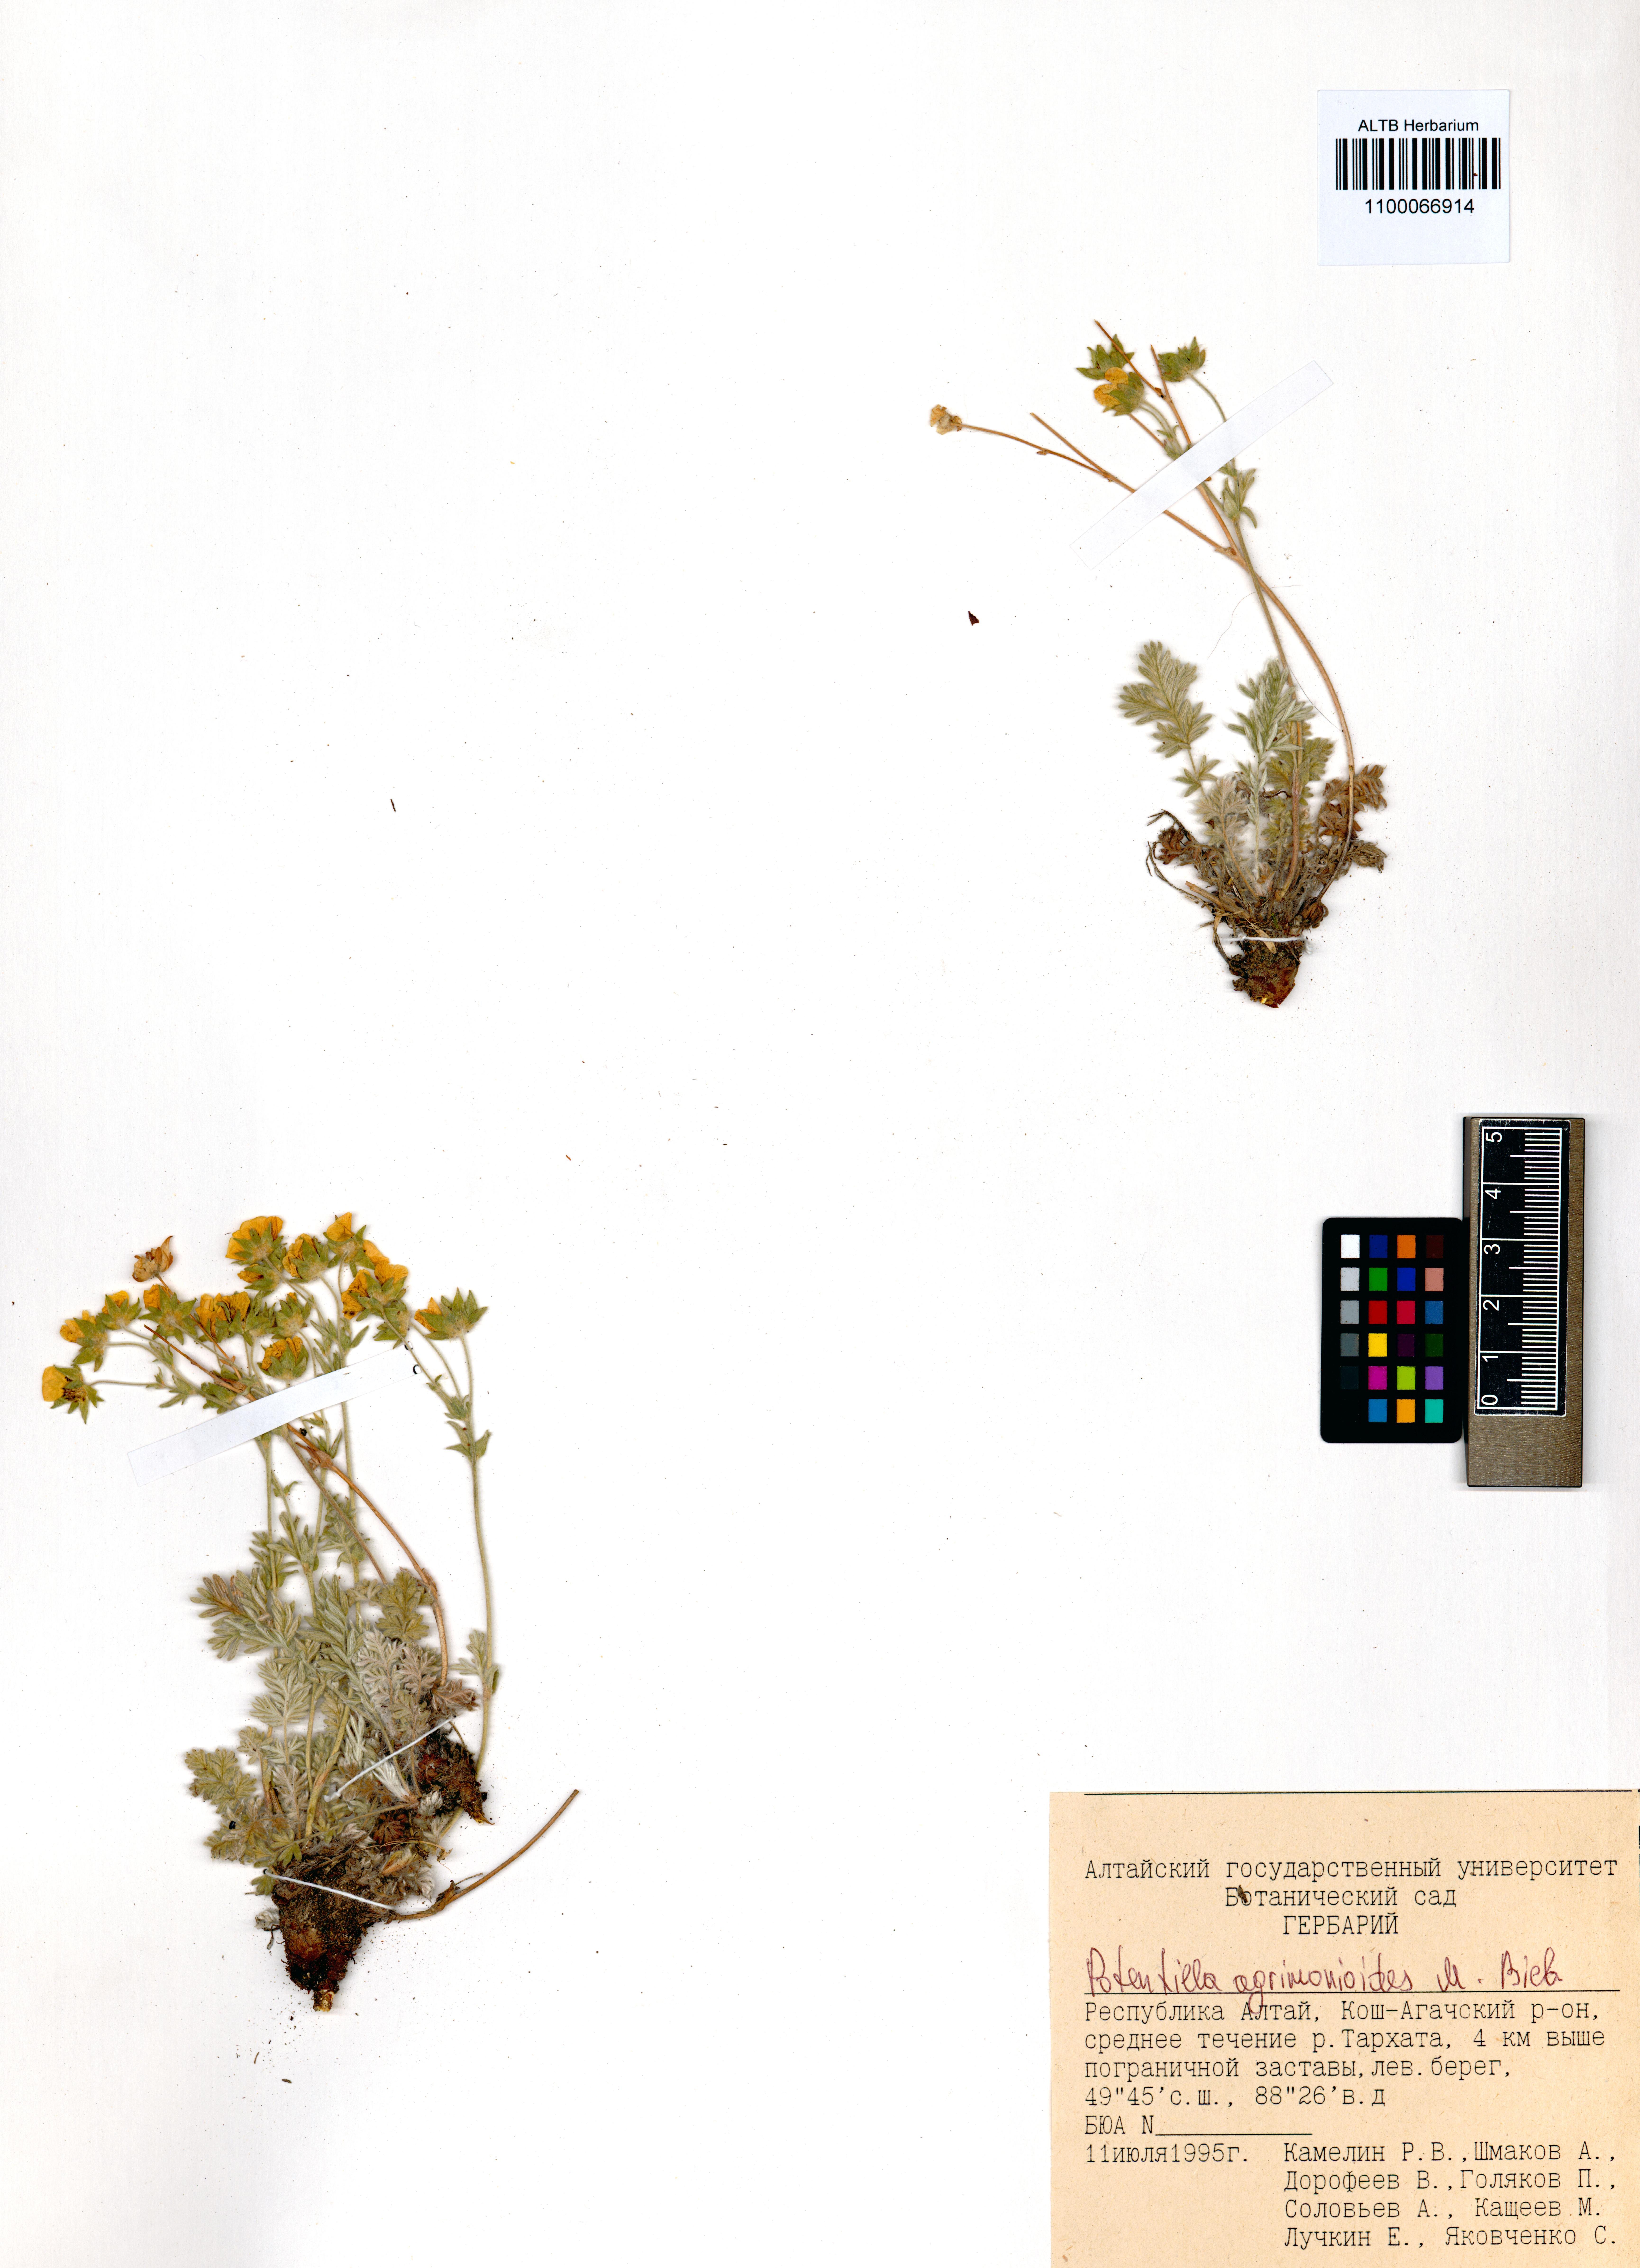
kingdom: Plantae
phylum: Tracheophyta
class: Magnoliopsida
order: Rosales
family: Rosaceae
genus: Potentilla
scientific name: Potentilla agrimonioides
